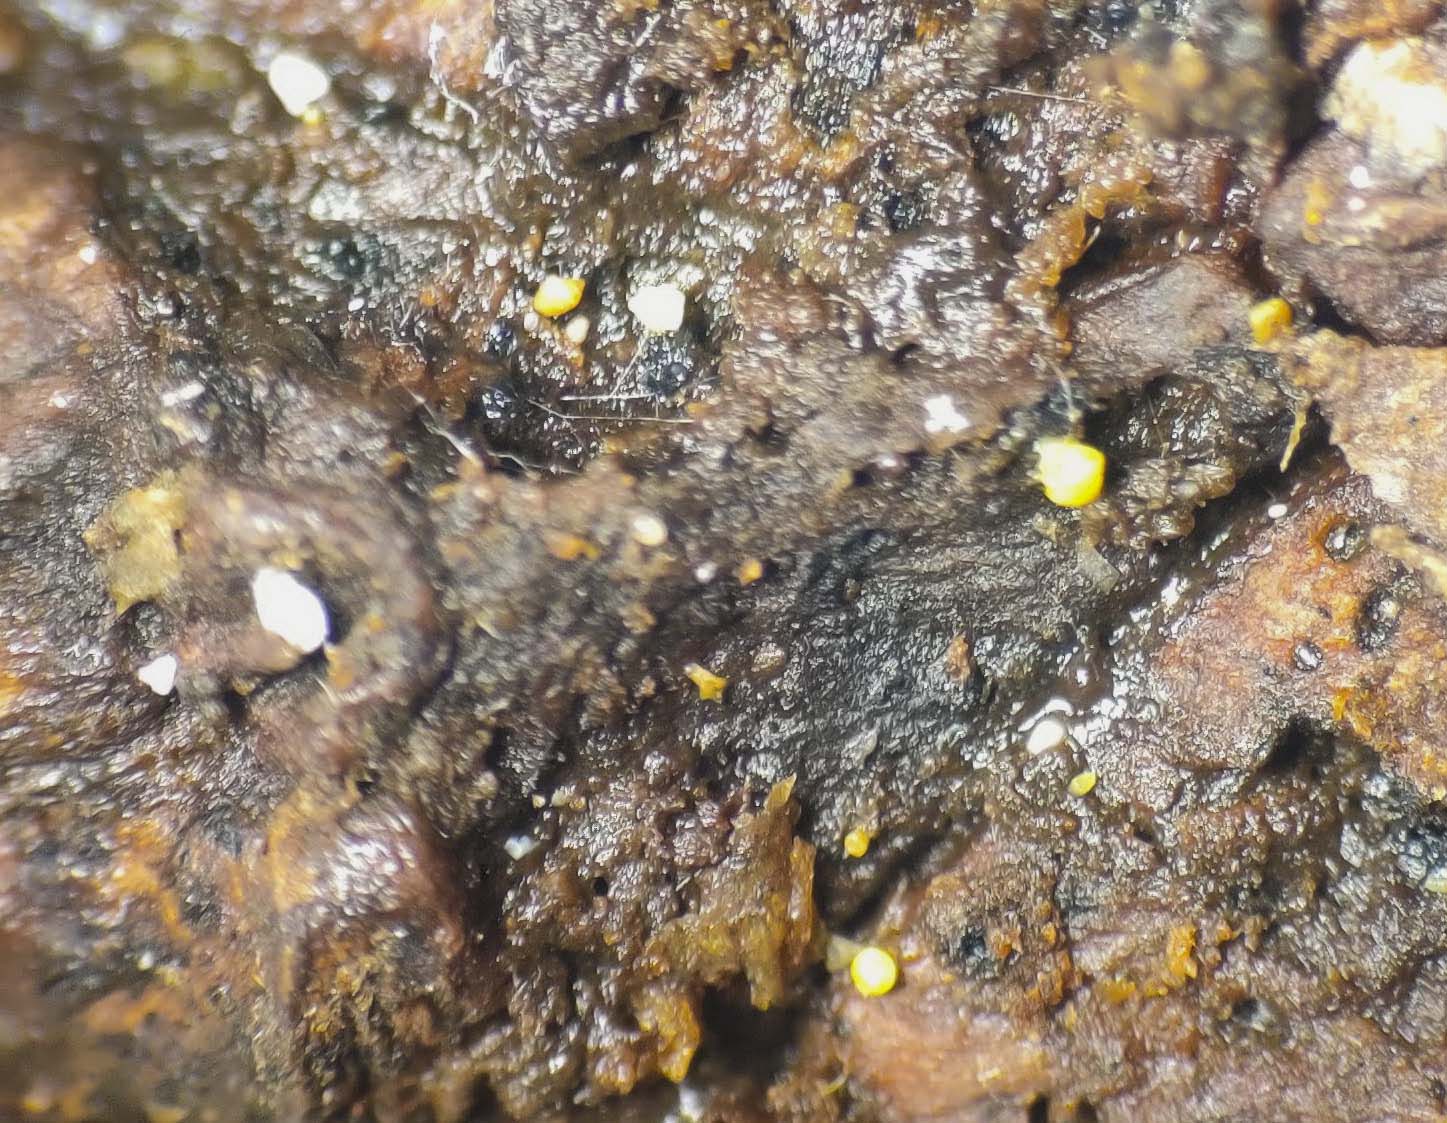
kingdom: Fungi
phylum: Ascomycota
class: Leotiomycetes
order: Helotiales
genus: Lemalis
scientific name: Lemalis aurea
